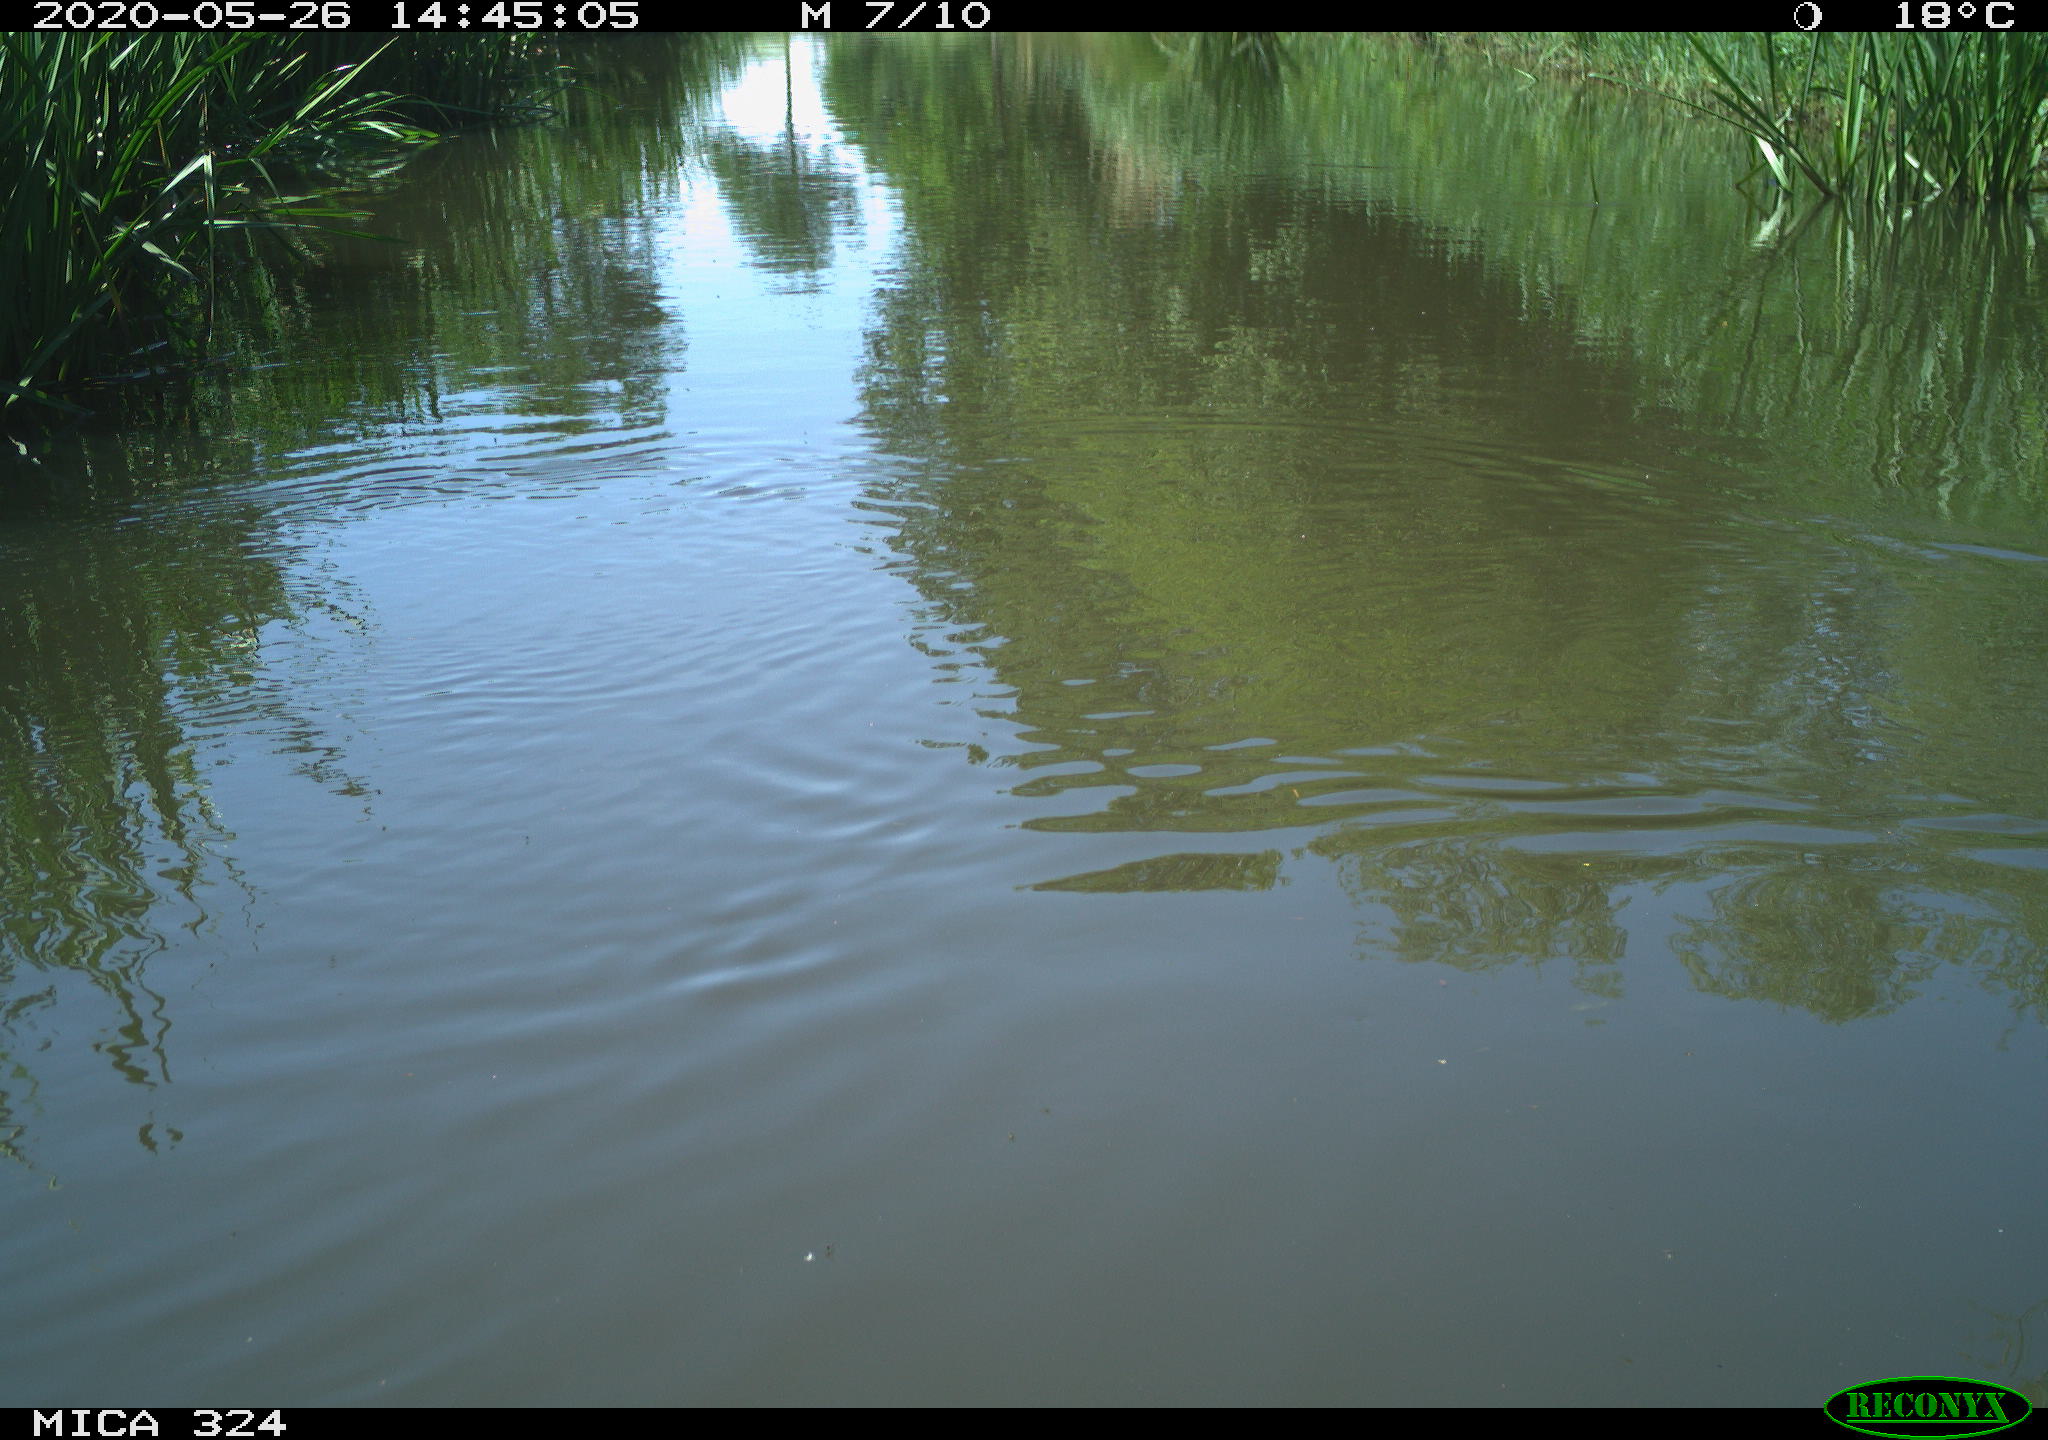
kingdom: Animalia
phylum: Chordata
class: Aves
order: Gruiformes
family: Rallidae
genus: Gallinula
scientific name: Gallinula chloropus
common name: Common moorhen
